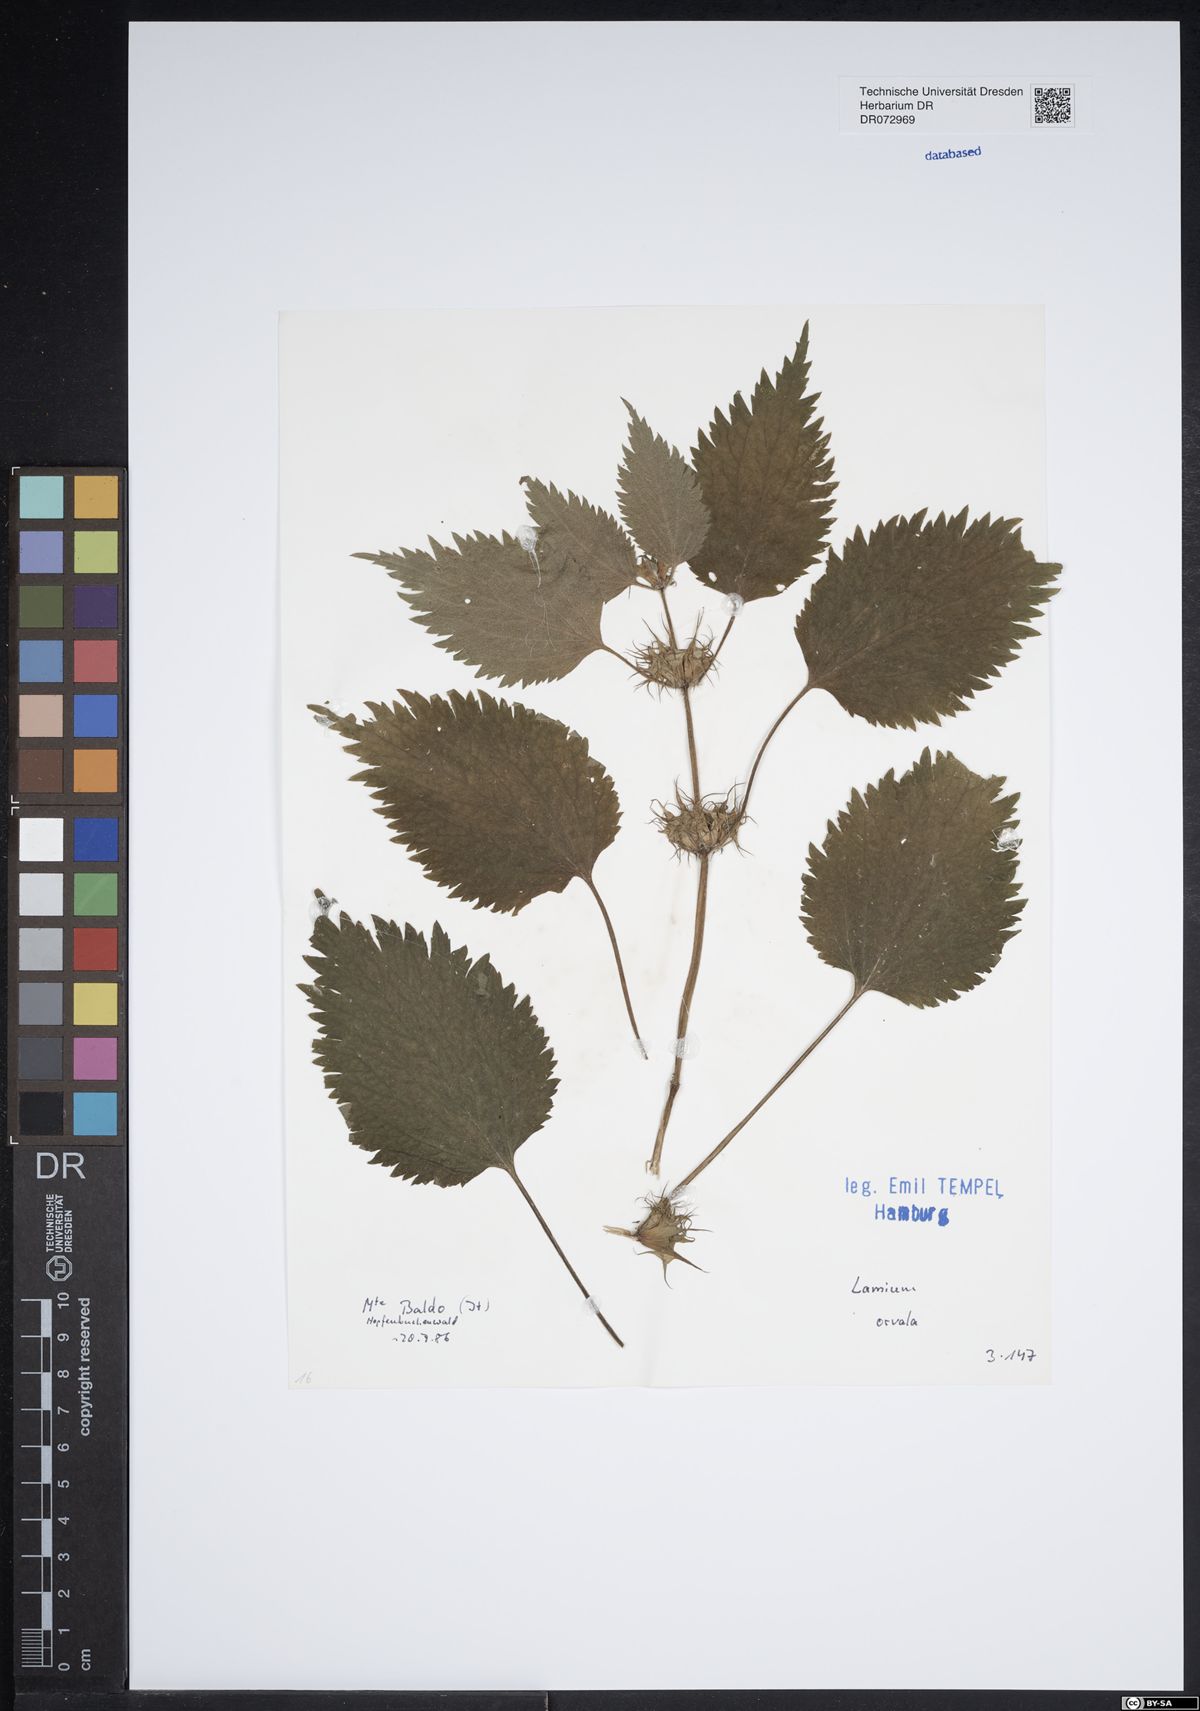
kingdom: Plantae
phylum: Tracheophyta
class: Magnoliopsida
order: Lamiales
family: Lamiaceae
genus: Lamium
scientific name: Lamium orvala
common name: Balm-leaved archangel
